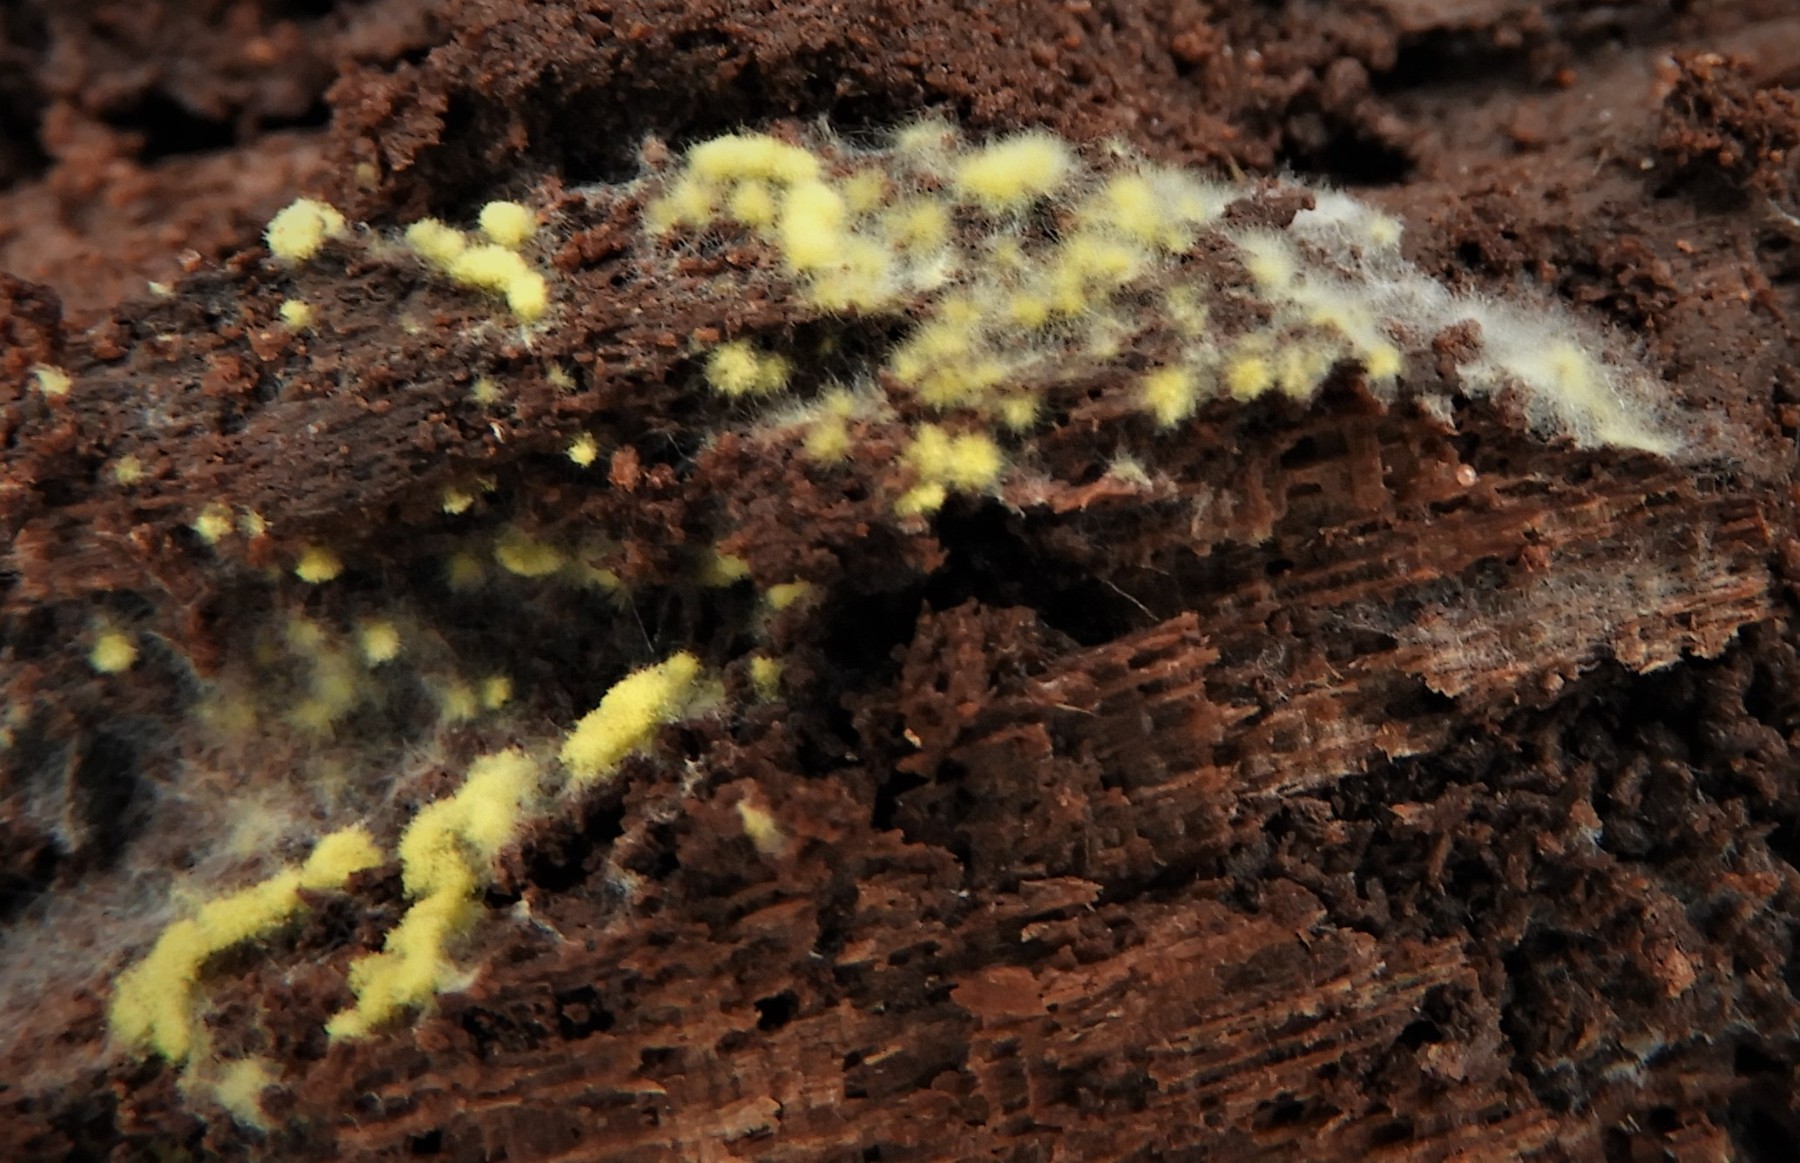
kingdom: Fungi
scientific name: Fungi
